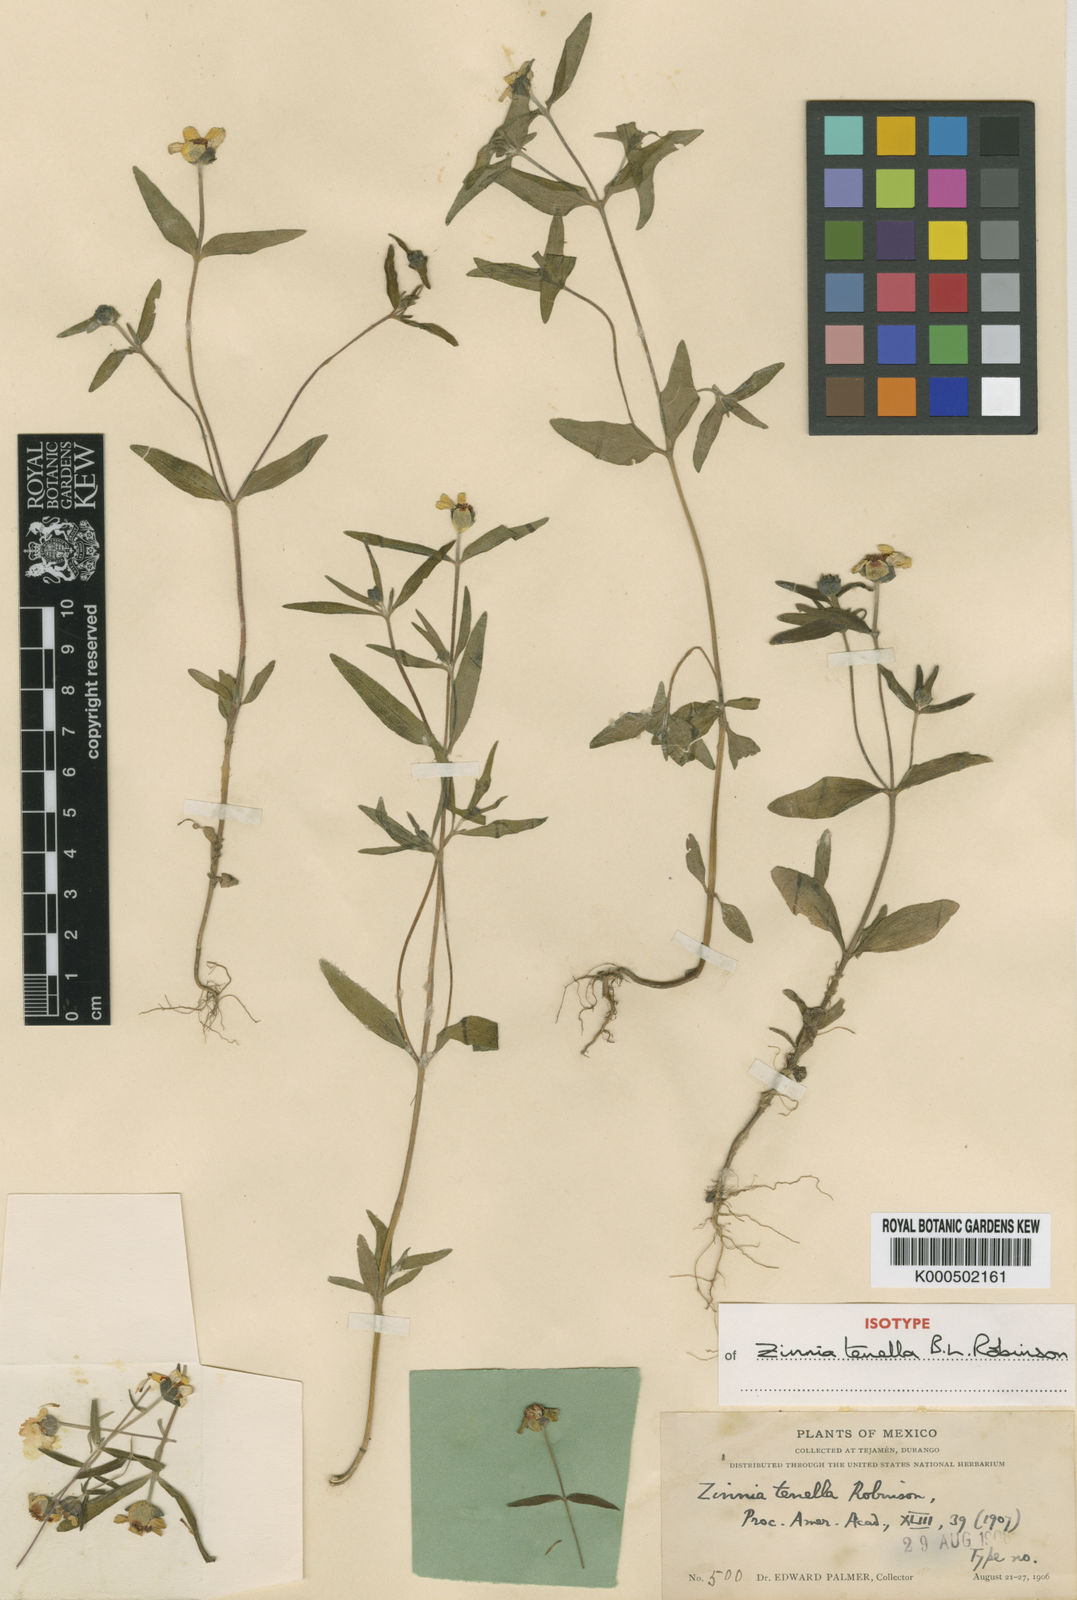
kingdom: Plantae
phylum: Tracheophyta
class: Magnoliopsida
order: Asterales
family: Asteraceae
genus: Zinnia
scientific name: Zinnia tenella
